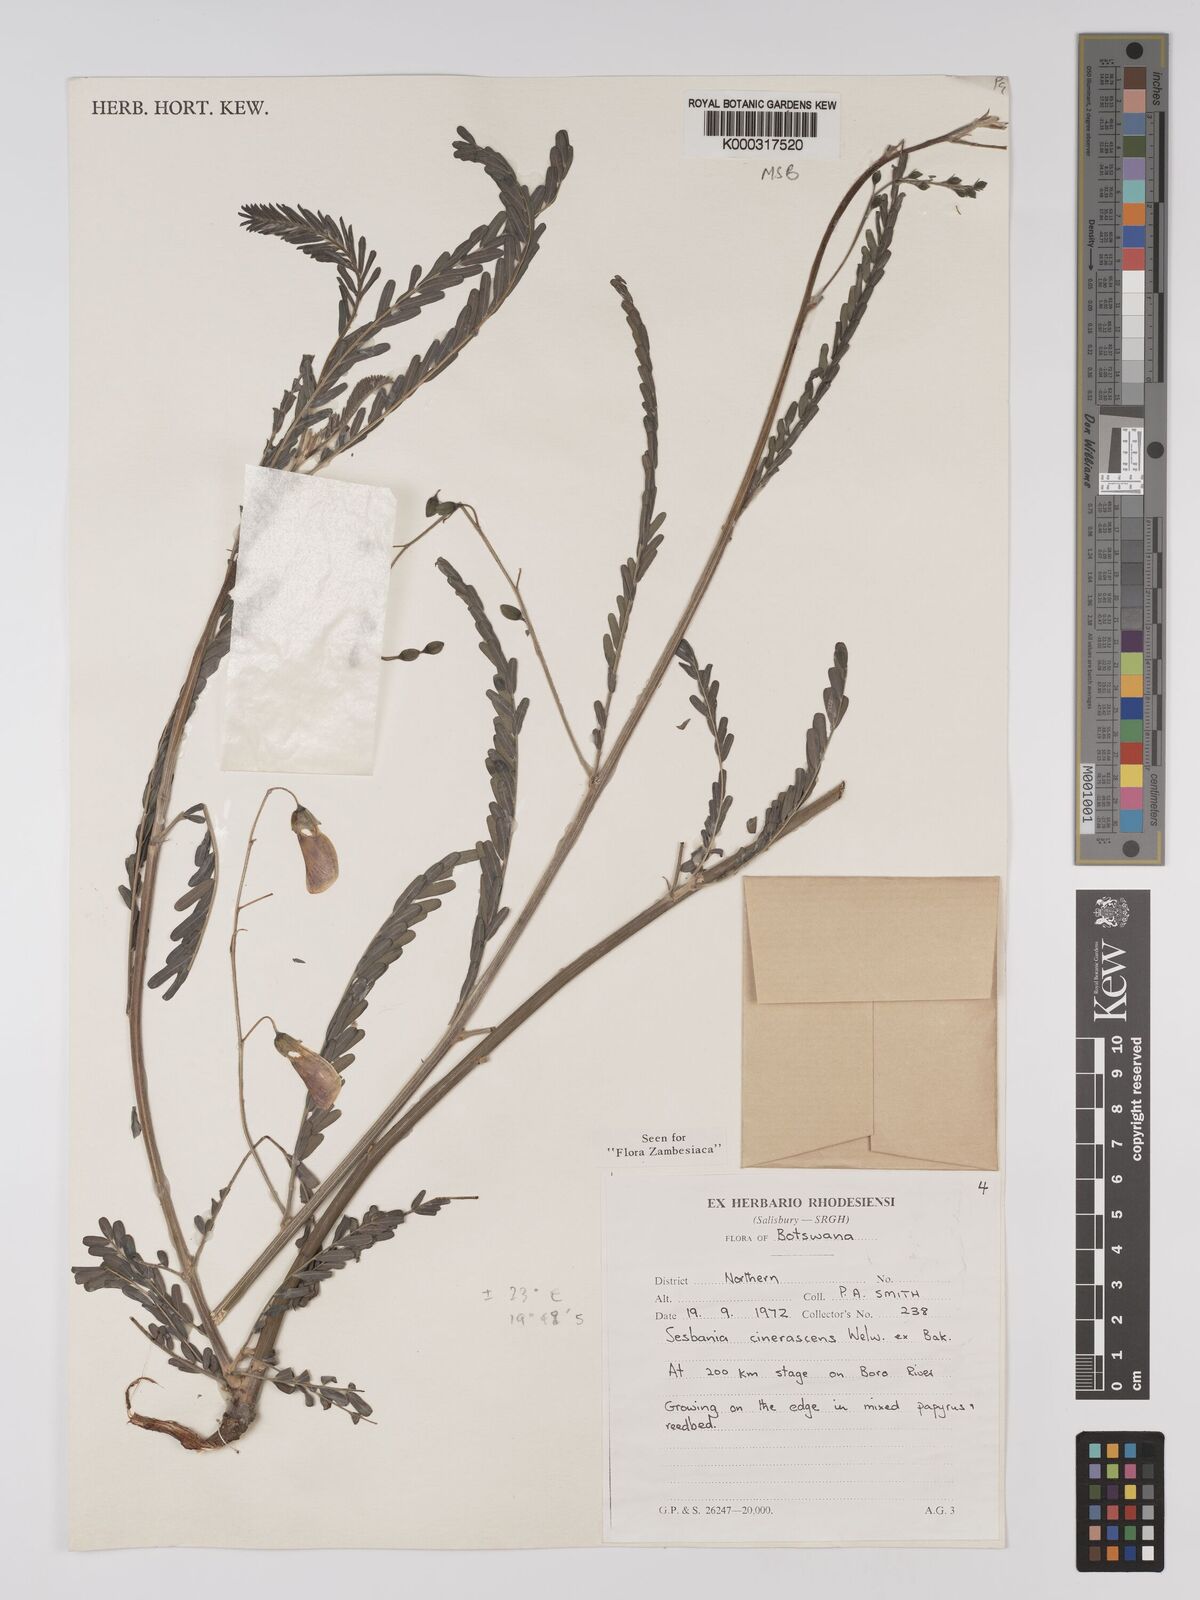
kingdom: Plantae
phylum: Tracheophyta
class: Magnoliopsida
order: Fabales
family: Fabaceae
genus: Sesbania
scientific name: Sesbania cinerascens
